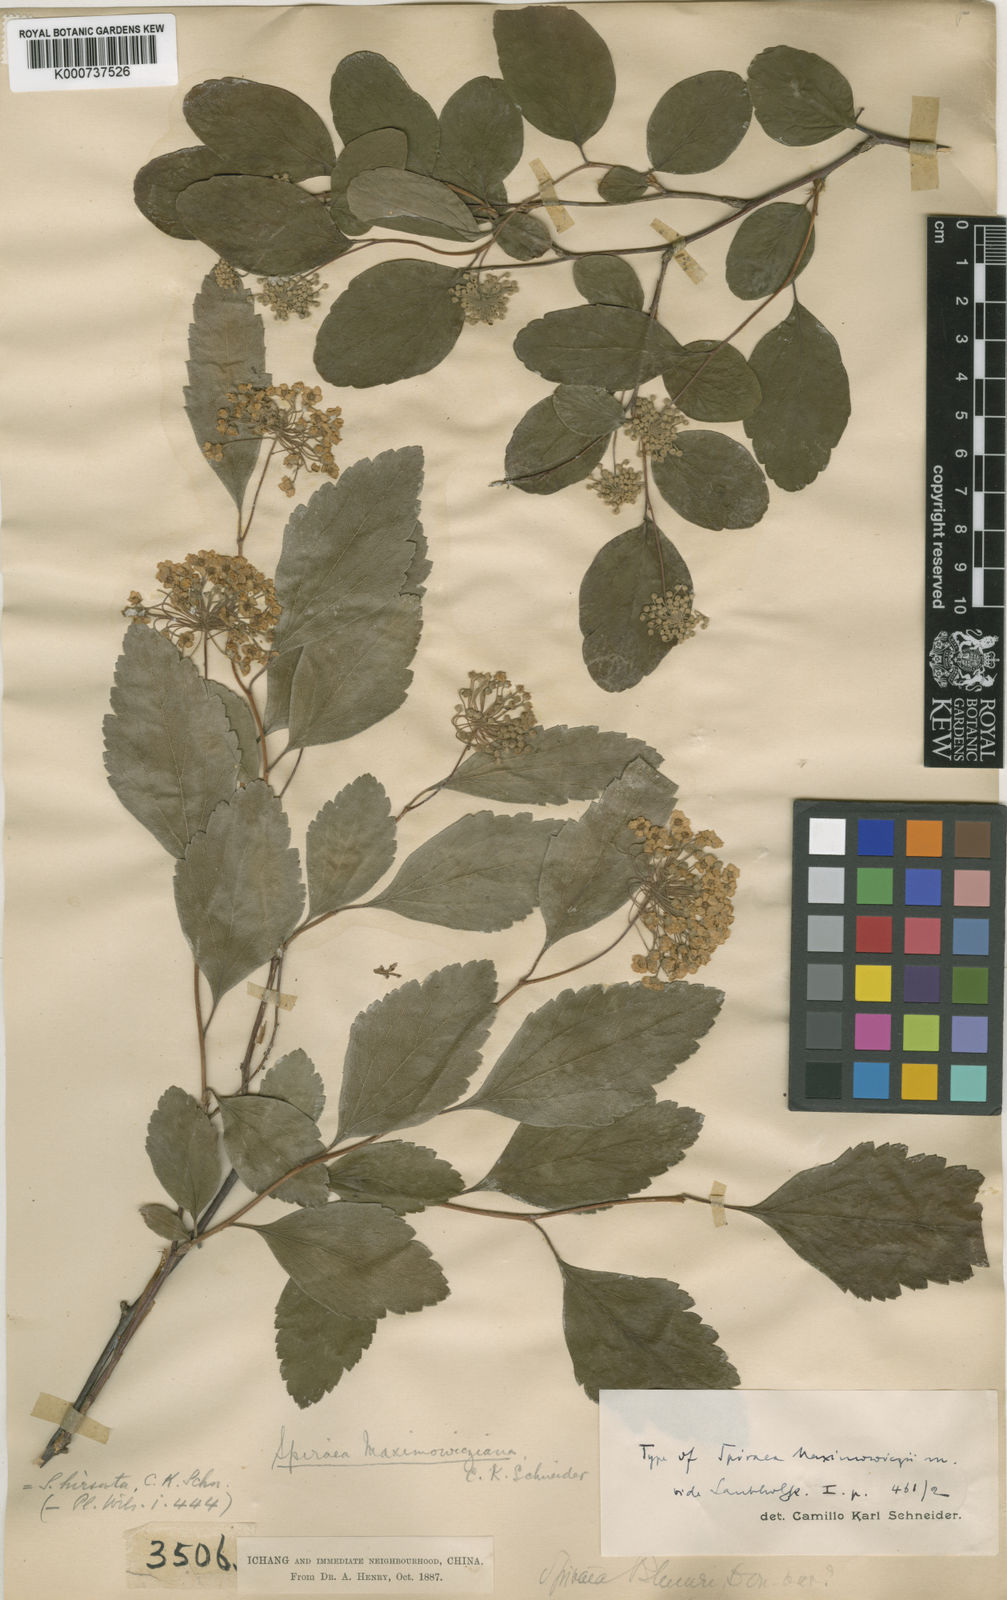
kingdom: Plantae
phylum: Tracheophyta
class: Magnoliopsida
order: Rosales
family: Rosaceae
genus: Spiraea
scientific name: Spiraea hirsuta
